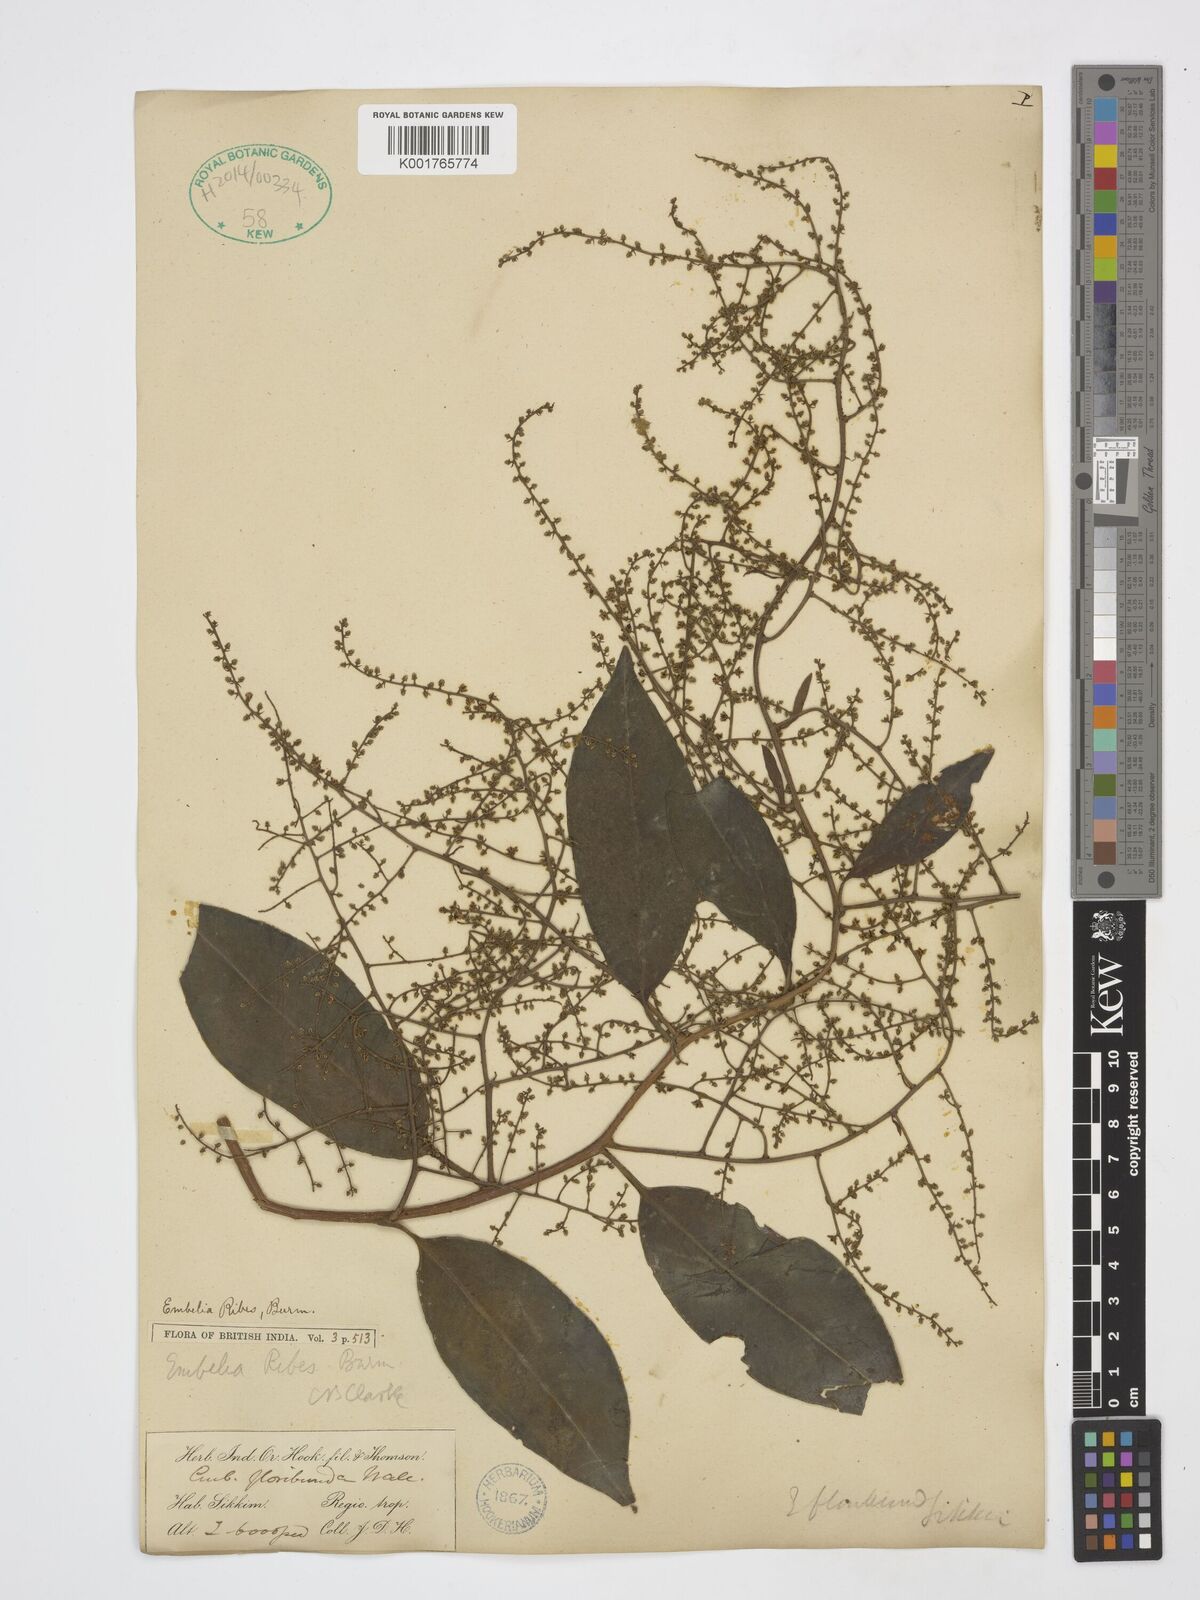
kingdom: Plantae
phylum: Tracheophyta
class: Magnoliopsida
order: Ericales
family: Primulaceae
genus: Embelia
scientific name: Embelia ribes
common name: Vidanga
